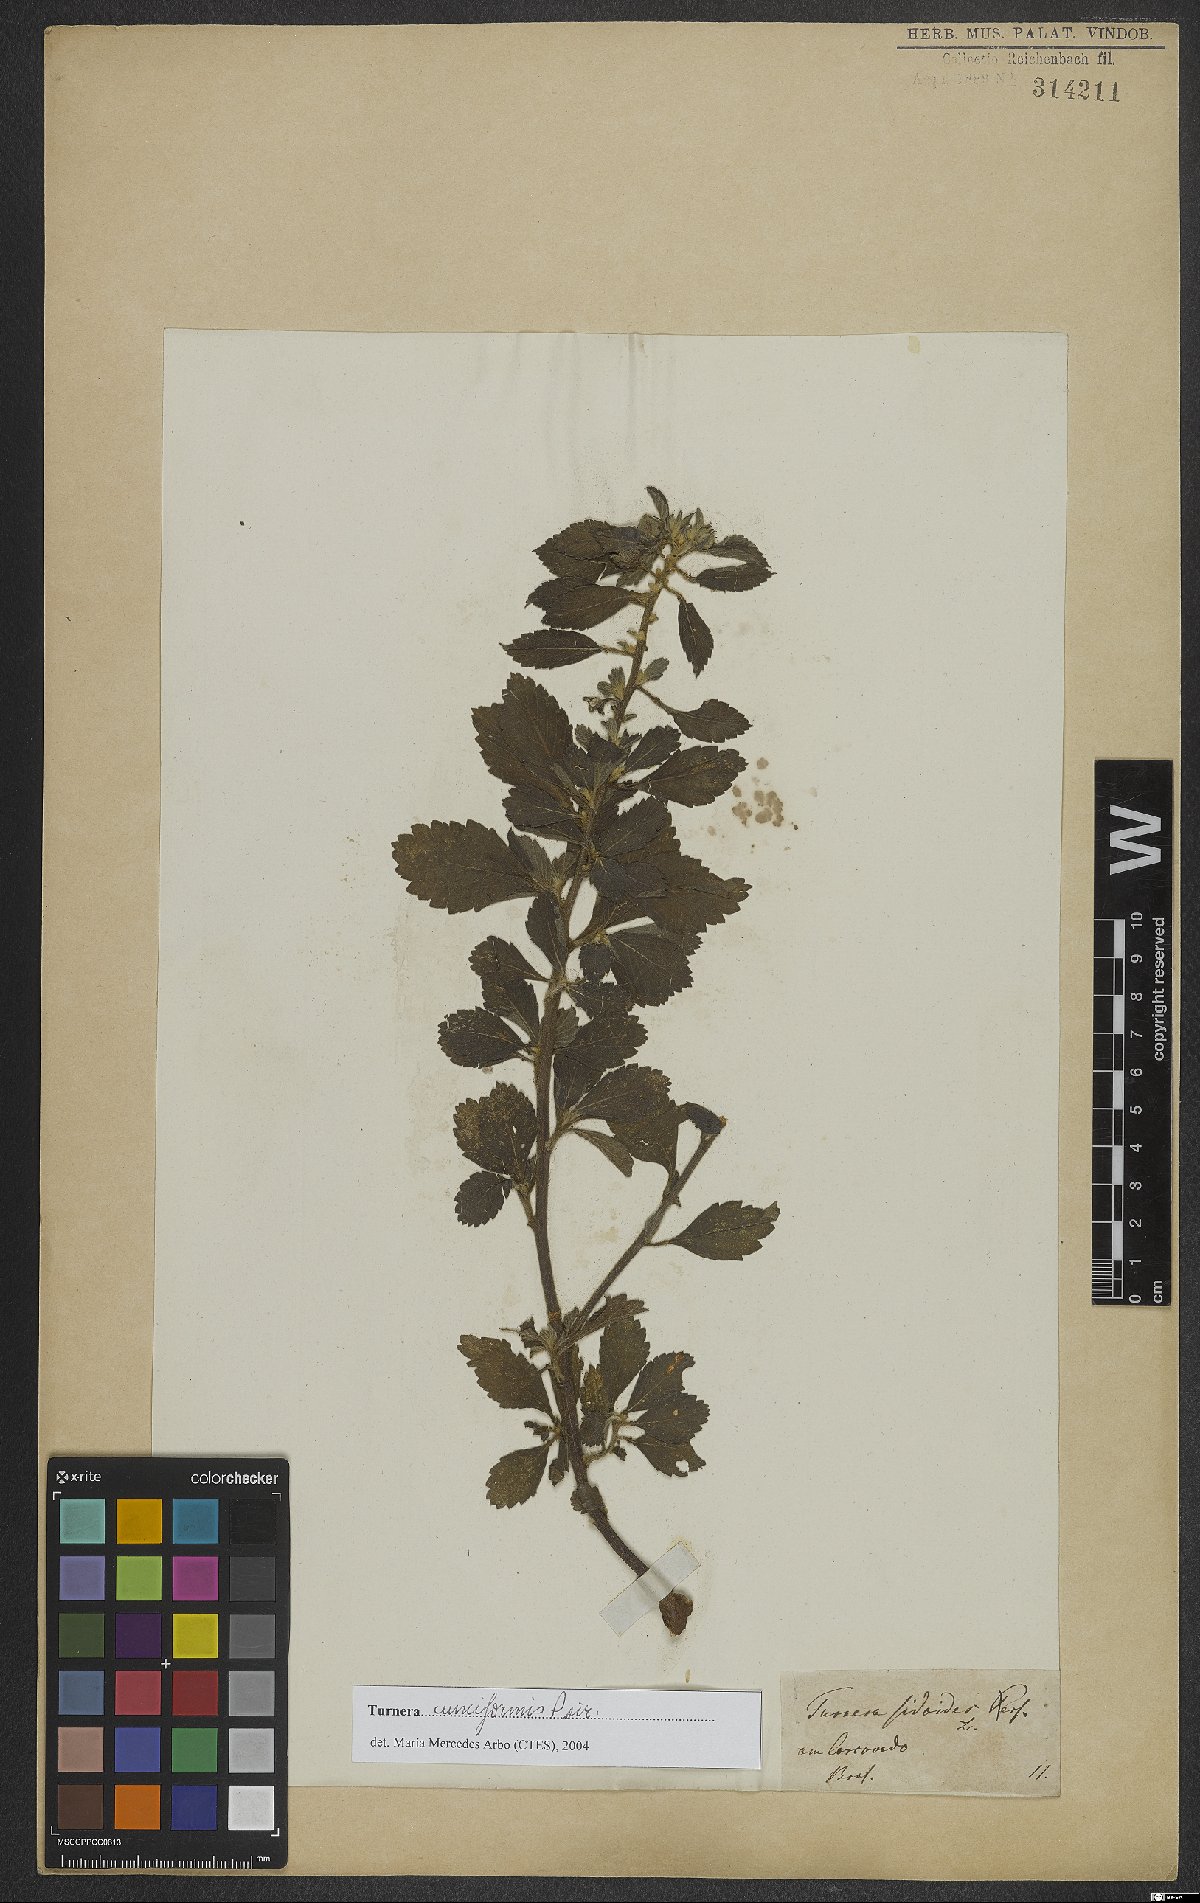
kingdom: Plantae
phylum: Tracheophyta
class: Magnoliopsida
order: Malpighiales
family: Turneraceae
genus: Turnera
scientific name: Turnera cuneiformis
